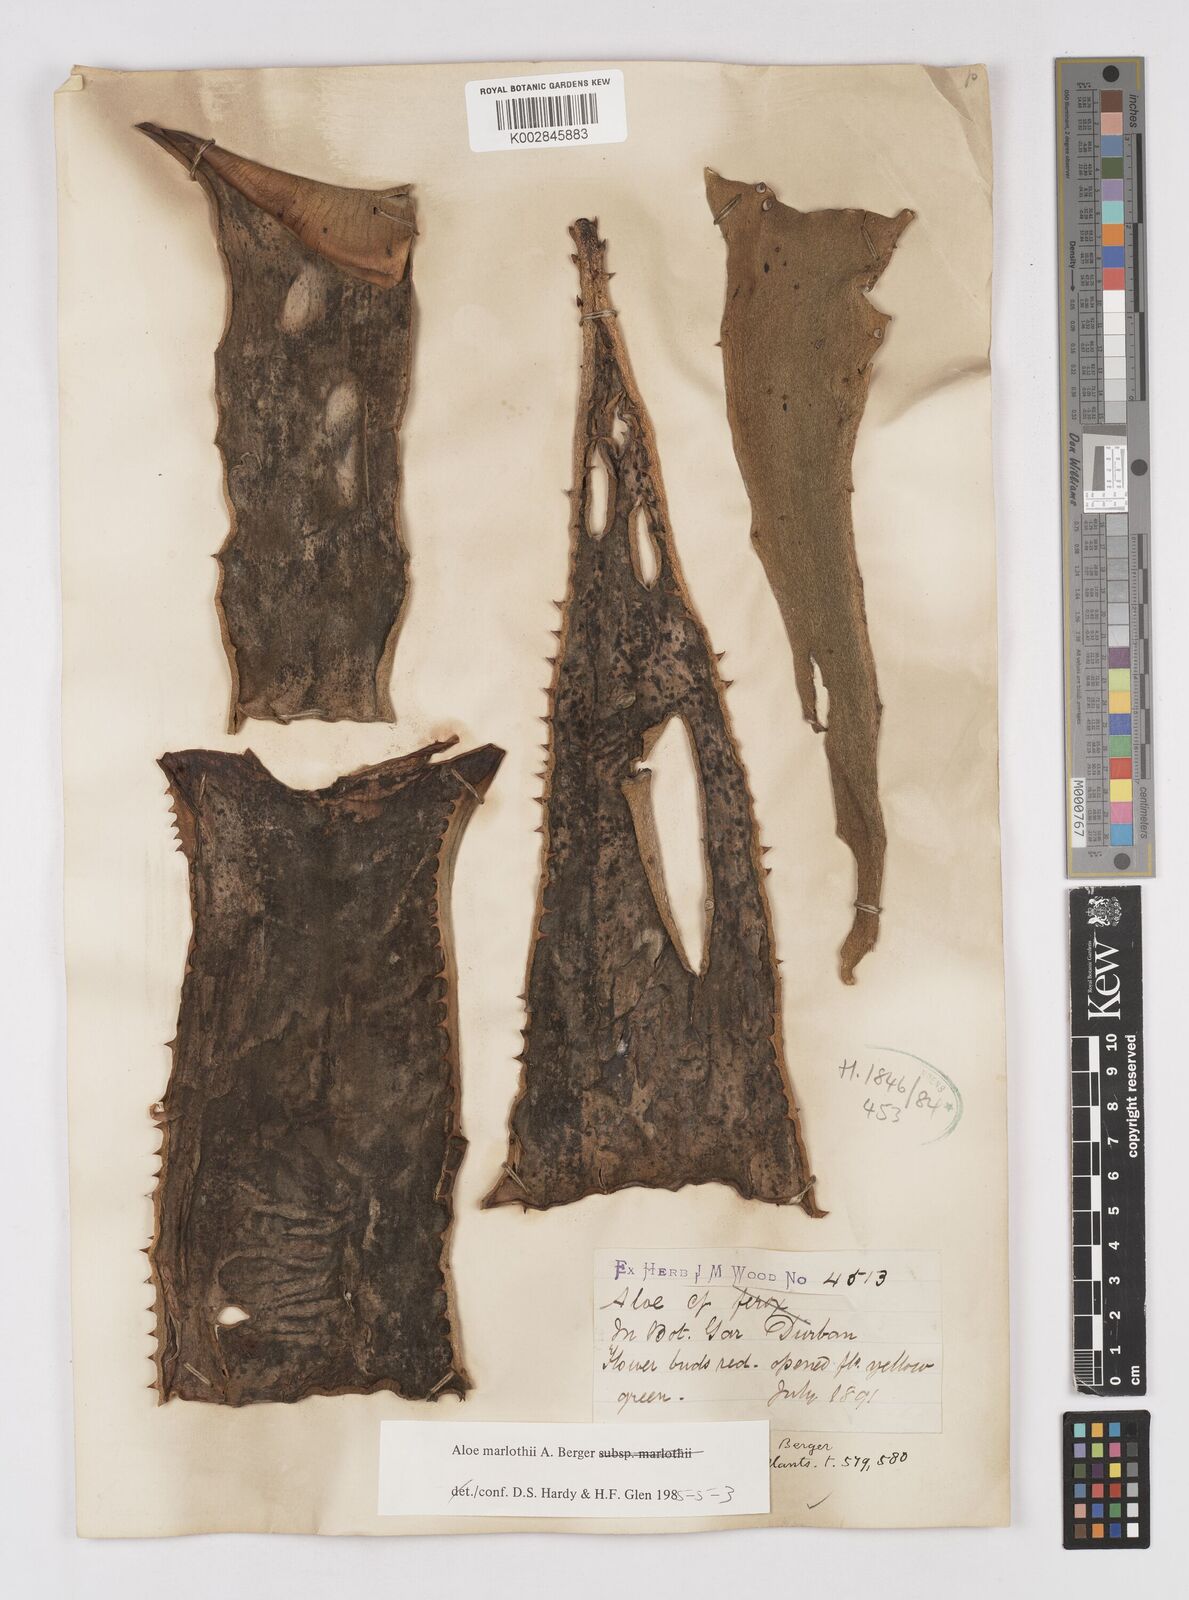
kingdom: Plantae
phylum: Tracheophyta
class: Liliopsida
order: Asparagales
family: Asphodelaceae
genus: Aloe
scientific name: Aloe marlothii
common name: Flat-flowered aloe
